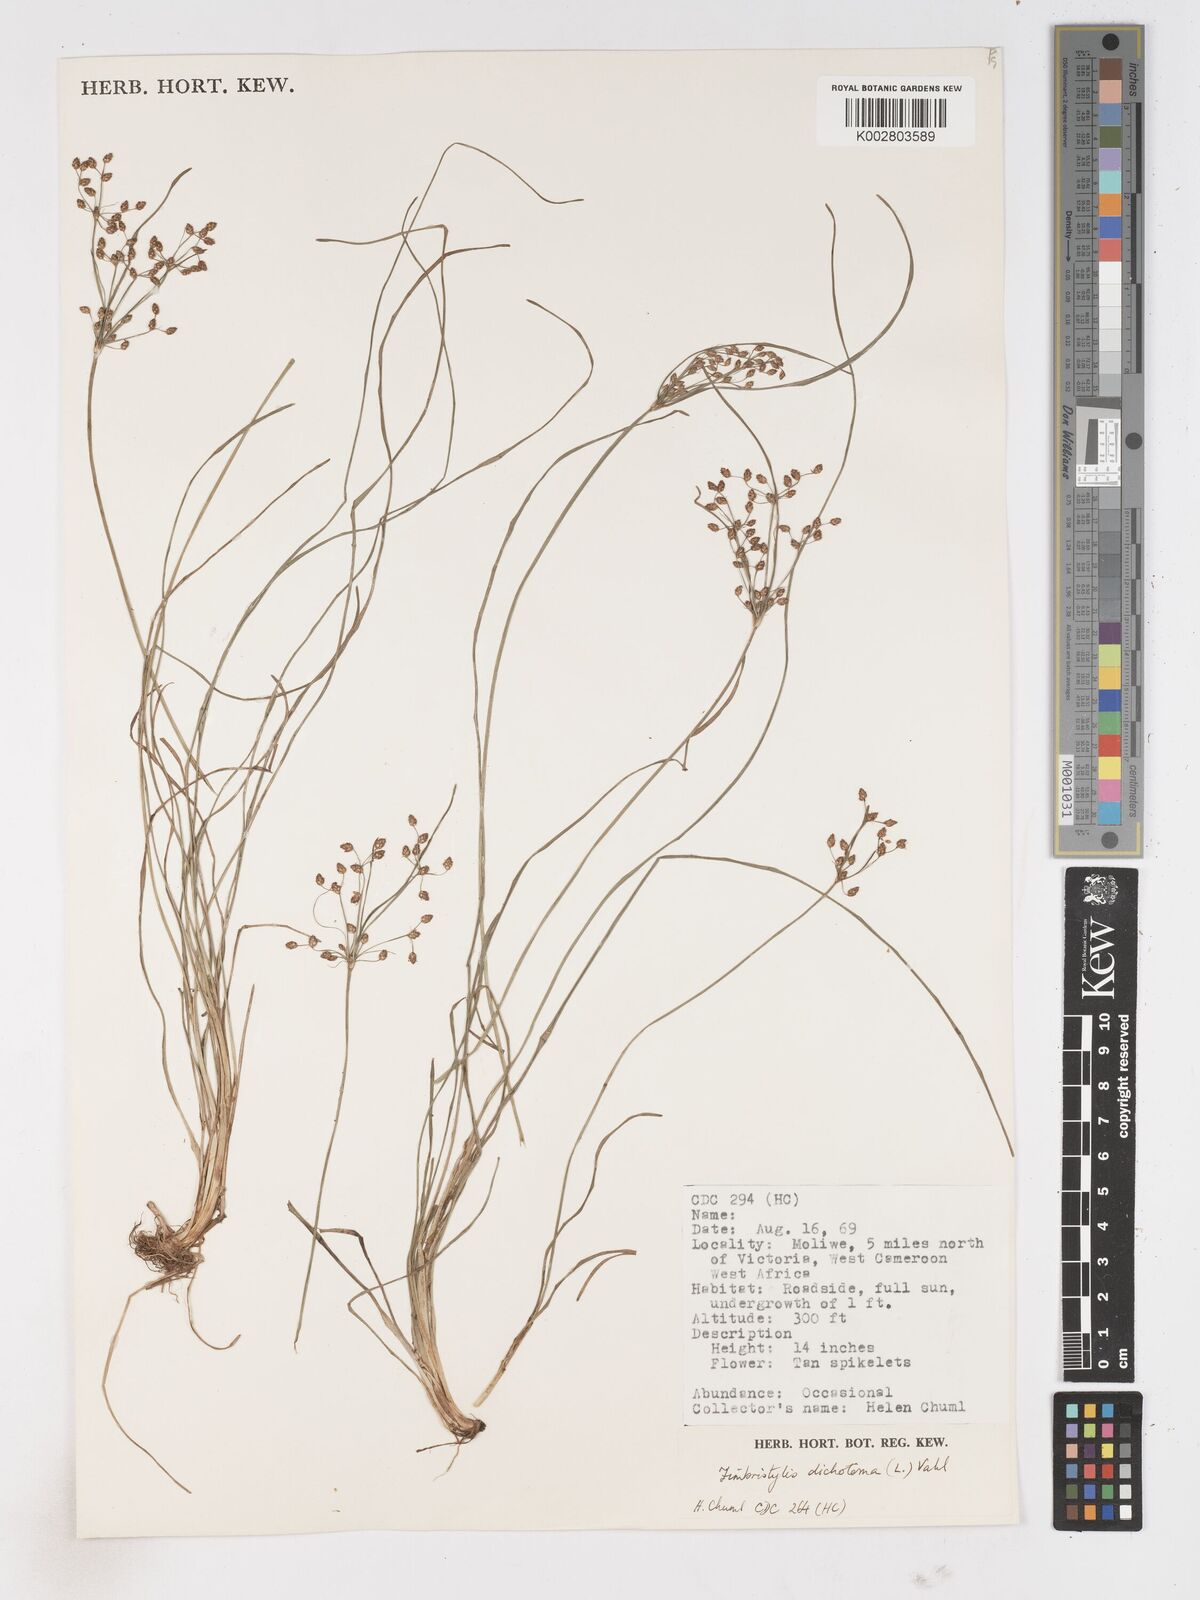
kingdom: Plantae
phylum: Tracheophyta
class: Liliopsida
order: Poales
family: Cyperaceae
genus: Fimbristylis
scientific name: Fimbristylis dichotoma
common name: Forked fimbry
